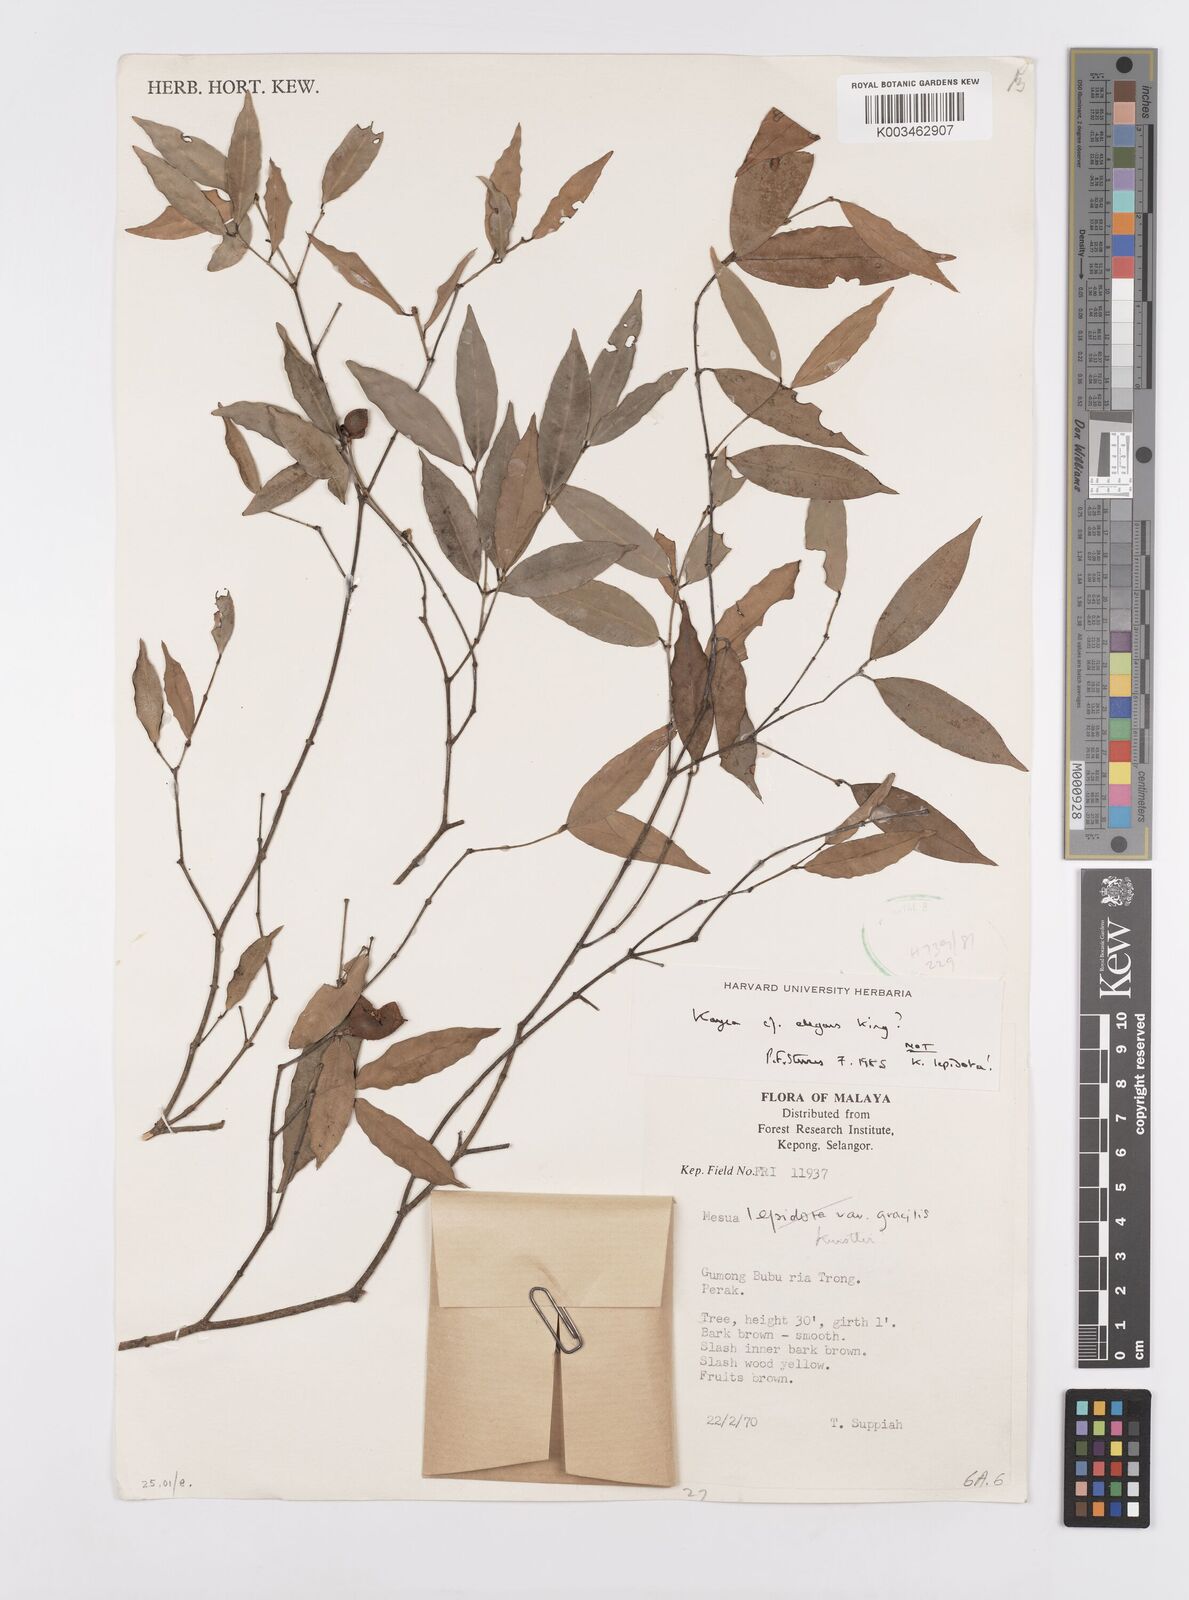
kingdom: Plantae
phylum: Tracheophyta
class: Magnoliopsida
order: Malpighiales
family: Calophyllaceae
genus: Kayea
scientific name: Kayea elegans
